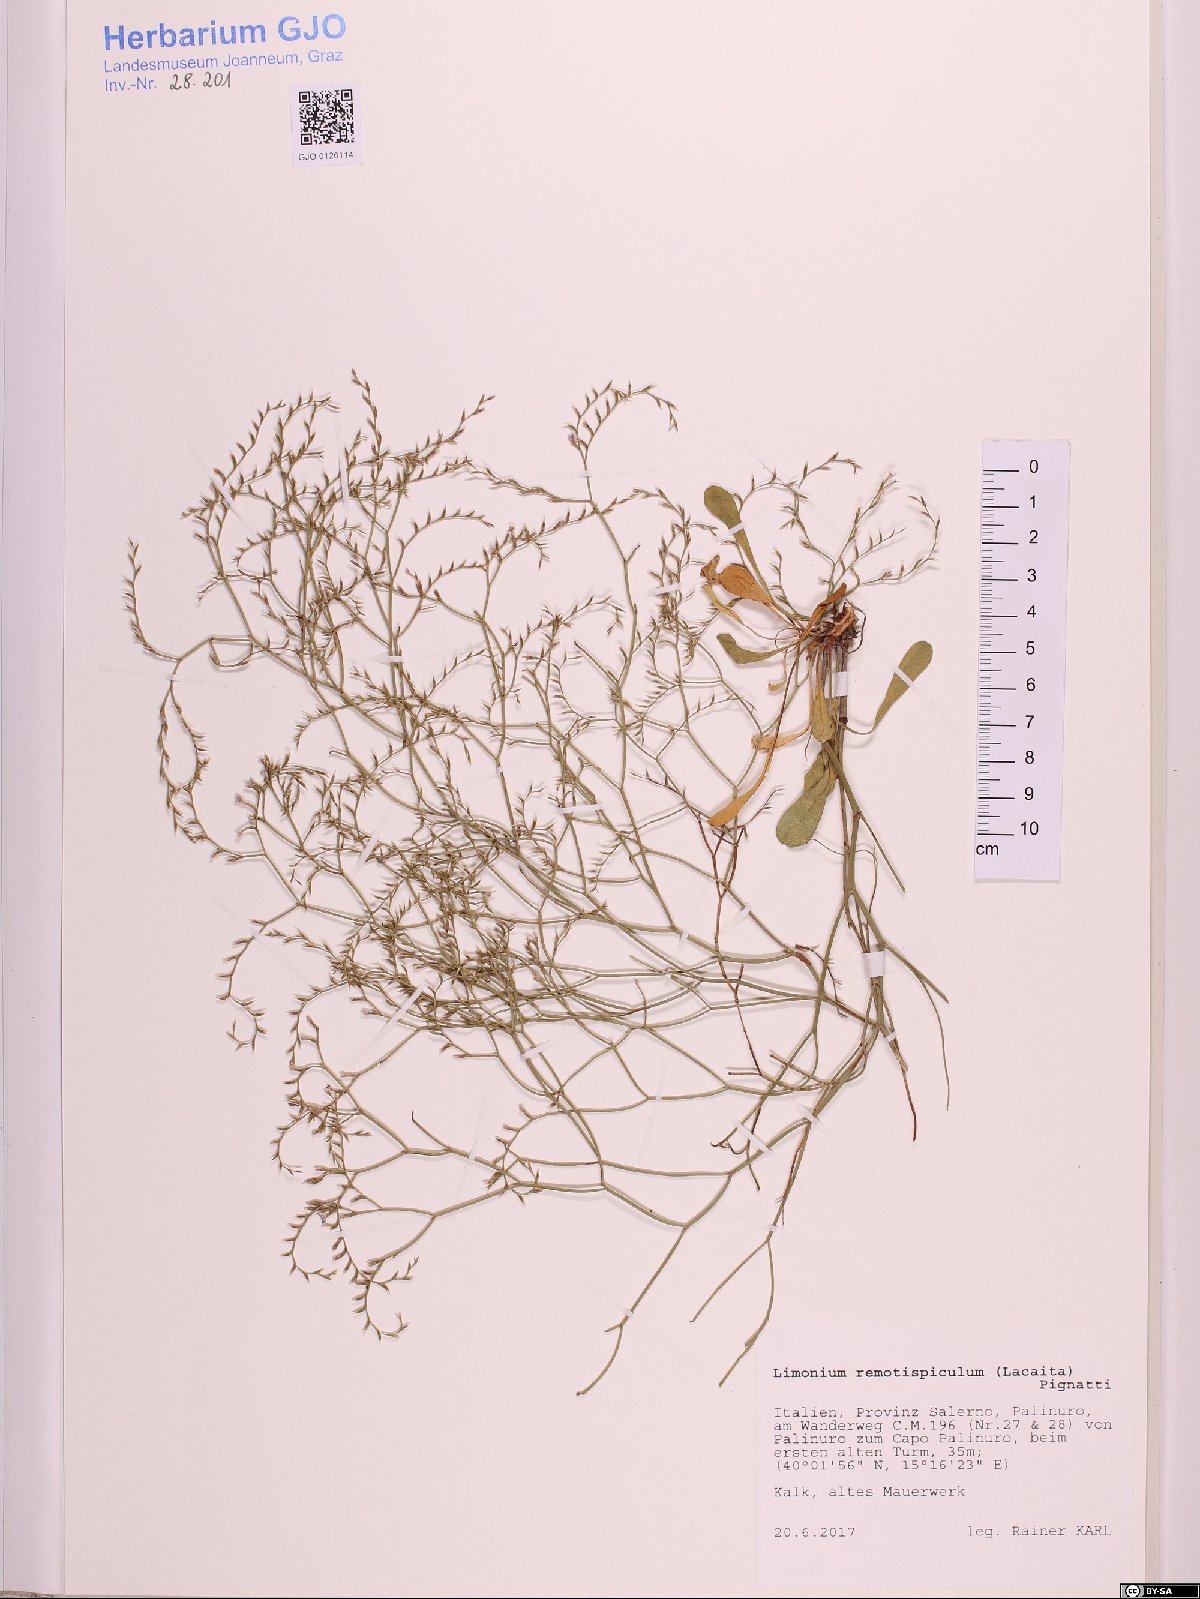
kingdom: Plantae
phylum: Tracheophyta
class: Magnoliopsida
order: Caryophyllales
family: Plumbaginaceae
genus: Limonium
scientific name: Limonium remotispiculum
